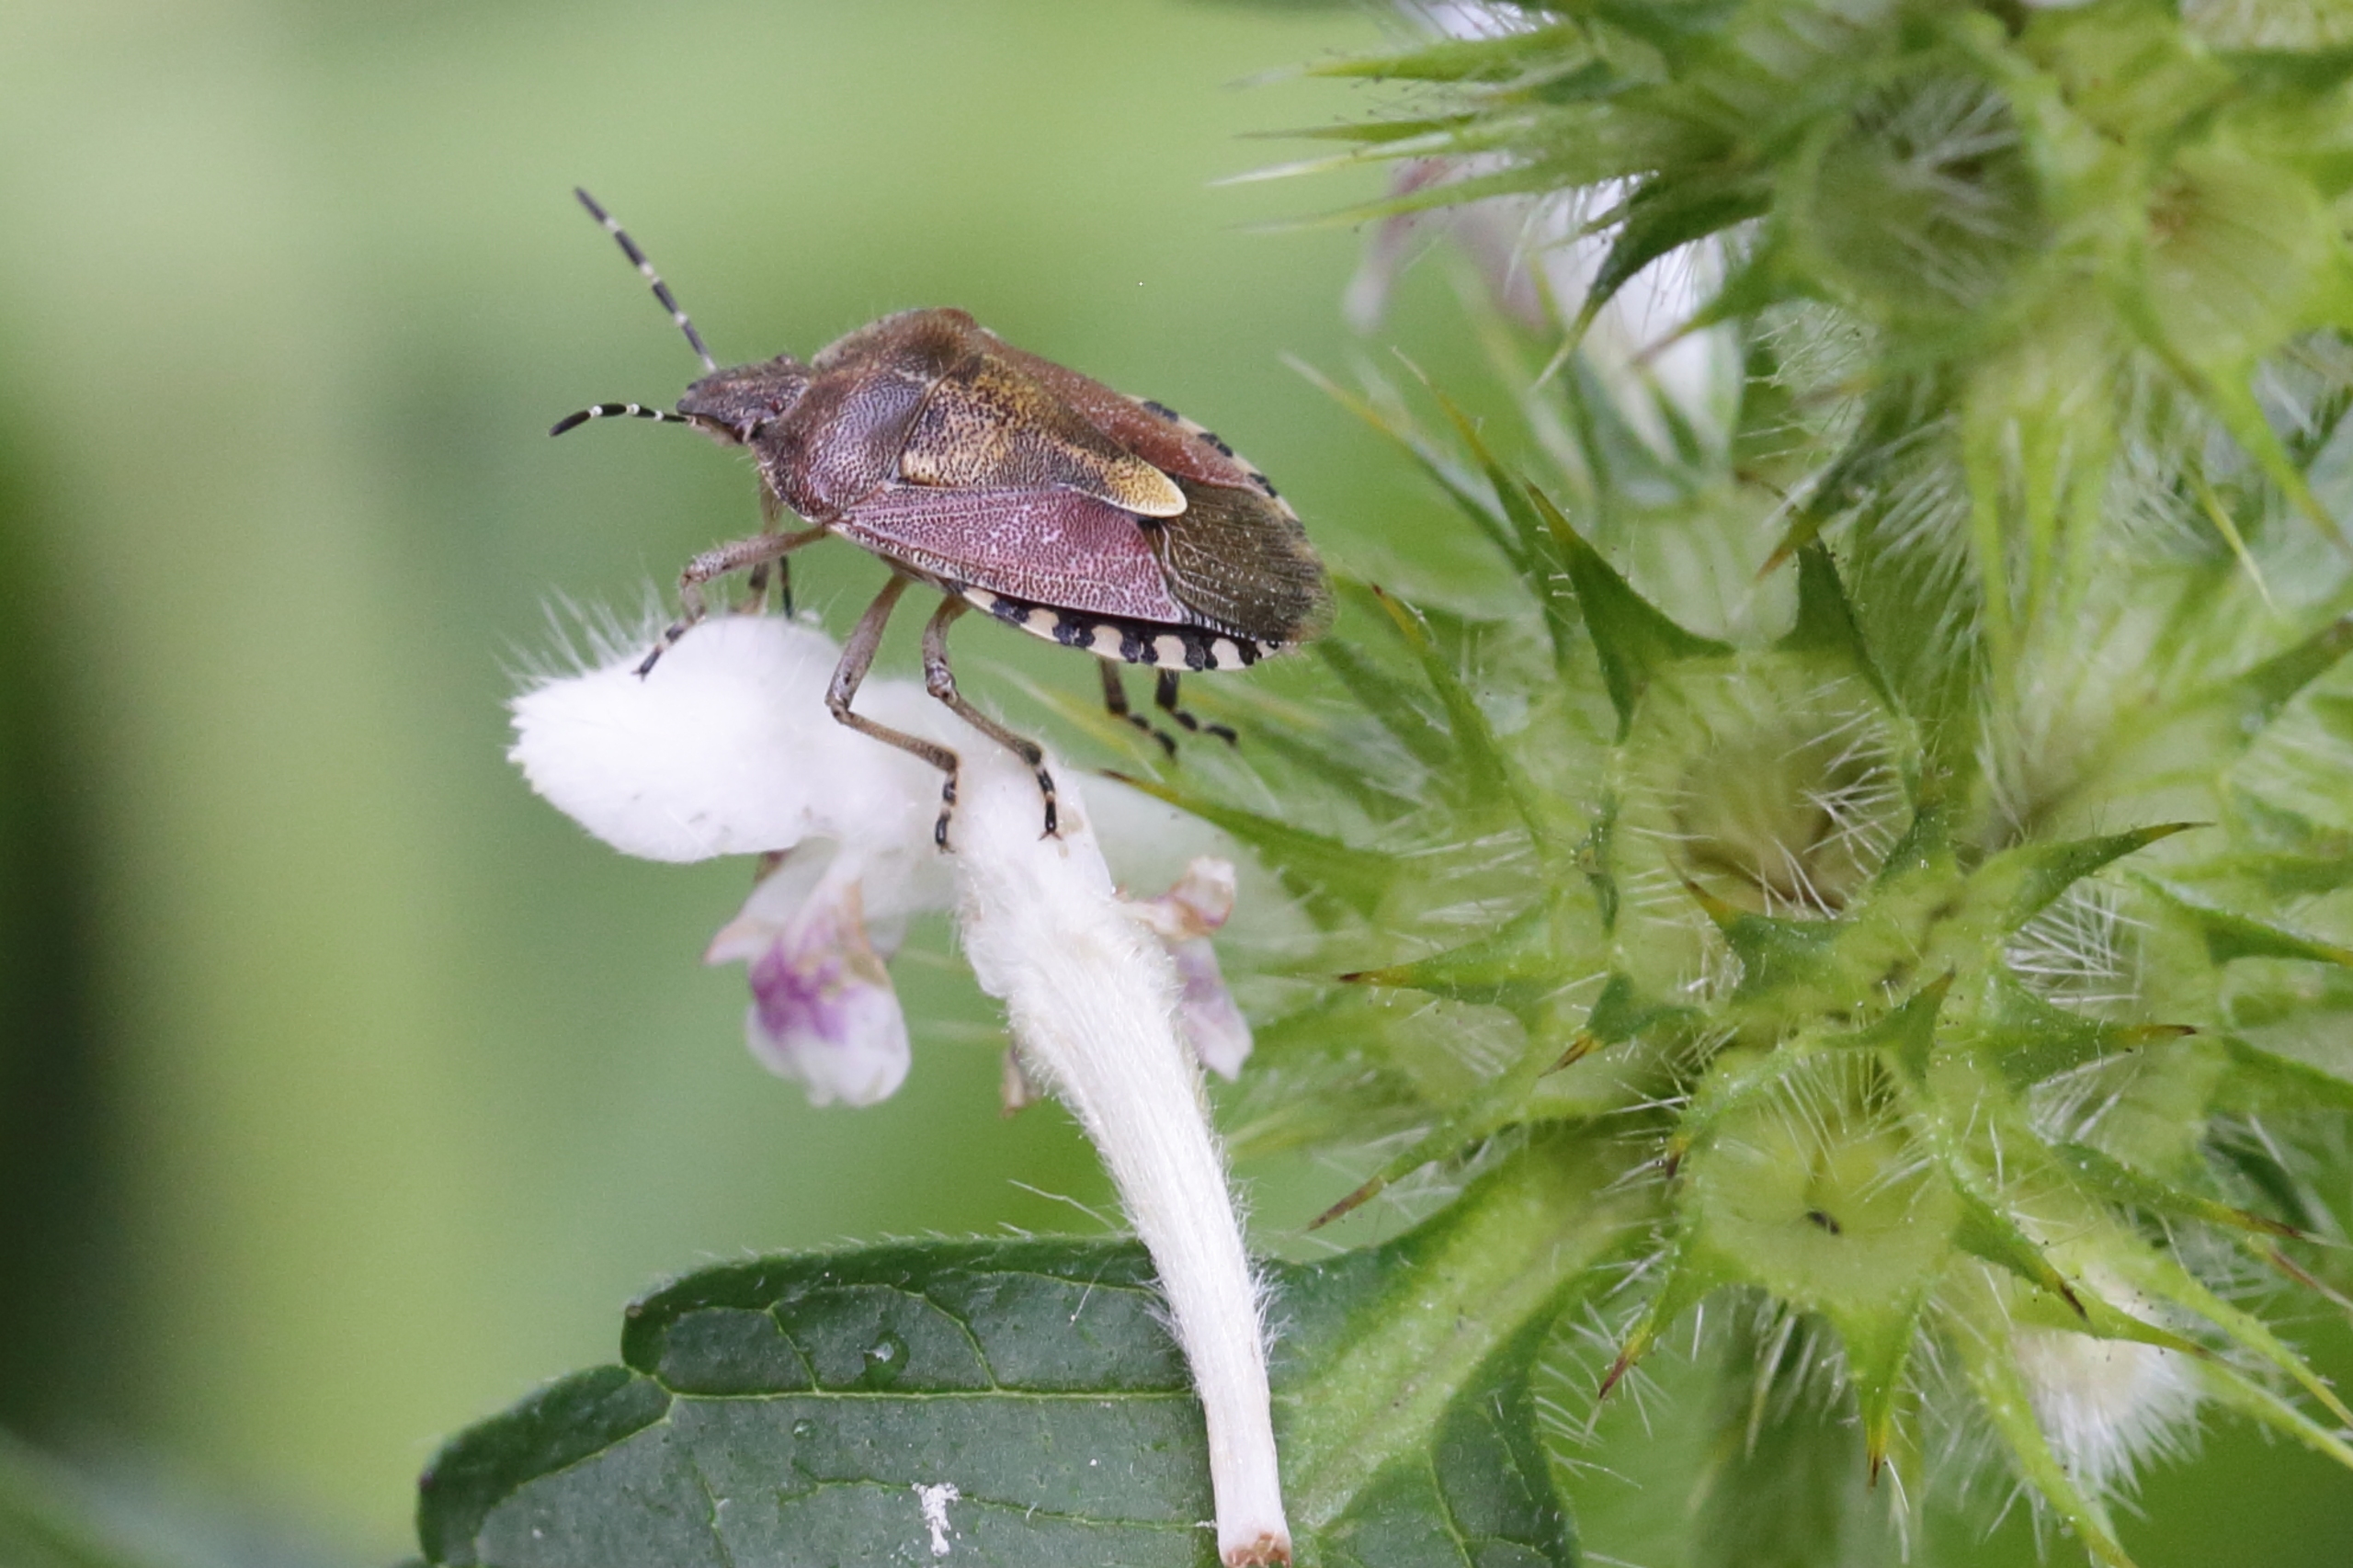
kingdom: Animalia
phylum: Arthropoda
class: Insecta
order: Hemiptera
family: Pentatomidae
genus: Dolycoris
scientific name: Dolycoris baccarum
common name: Almindelig bærtæge
